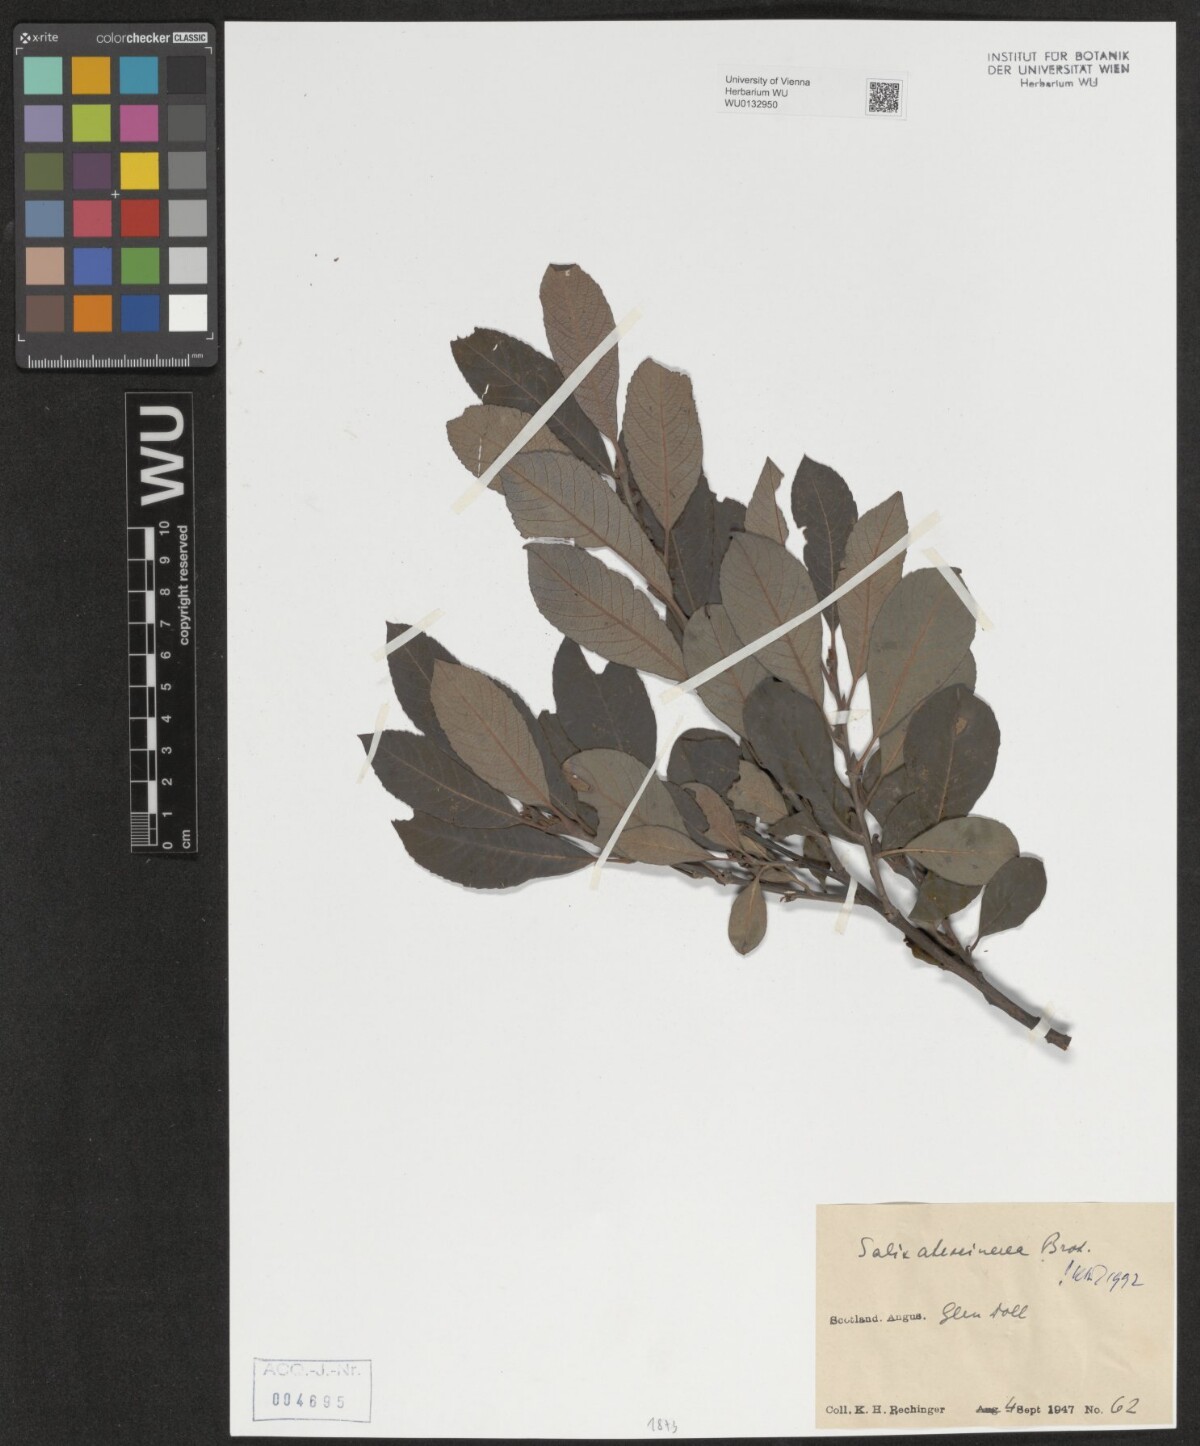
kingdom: Plantae
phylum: Tracheophyta
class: Magnoliopsida
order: Malpighiales
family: Salicaceae
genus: Salix
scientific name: Salix atrocinerea
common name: Rusty willow
